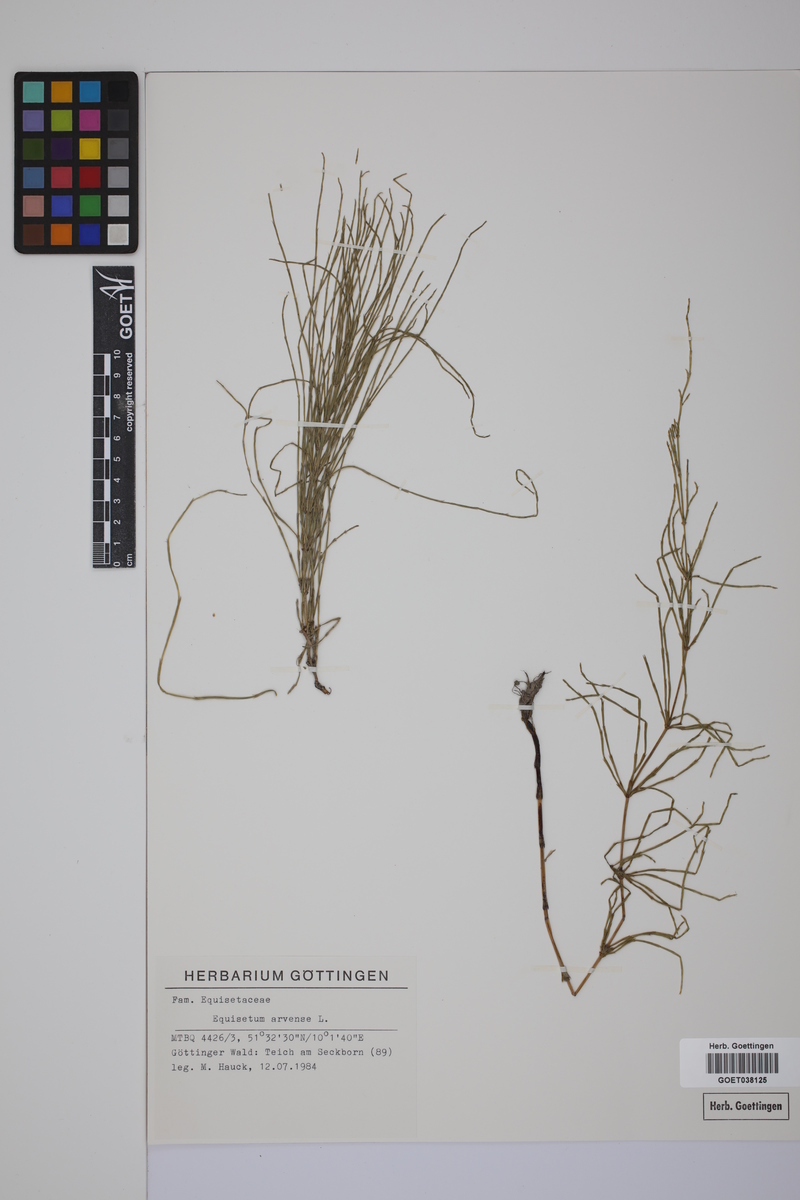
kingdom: Plantae
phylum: Tracheophyta
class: Polypodiopsida
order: Equisetales
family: Equisetaceae
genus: Equisetum
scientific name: Equisetum arvense
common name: Field horsetail
